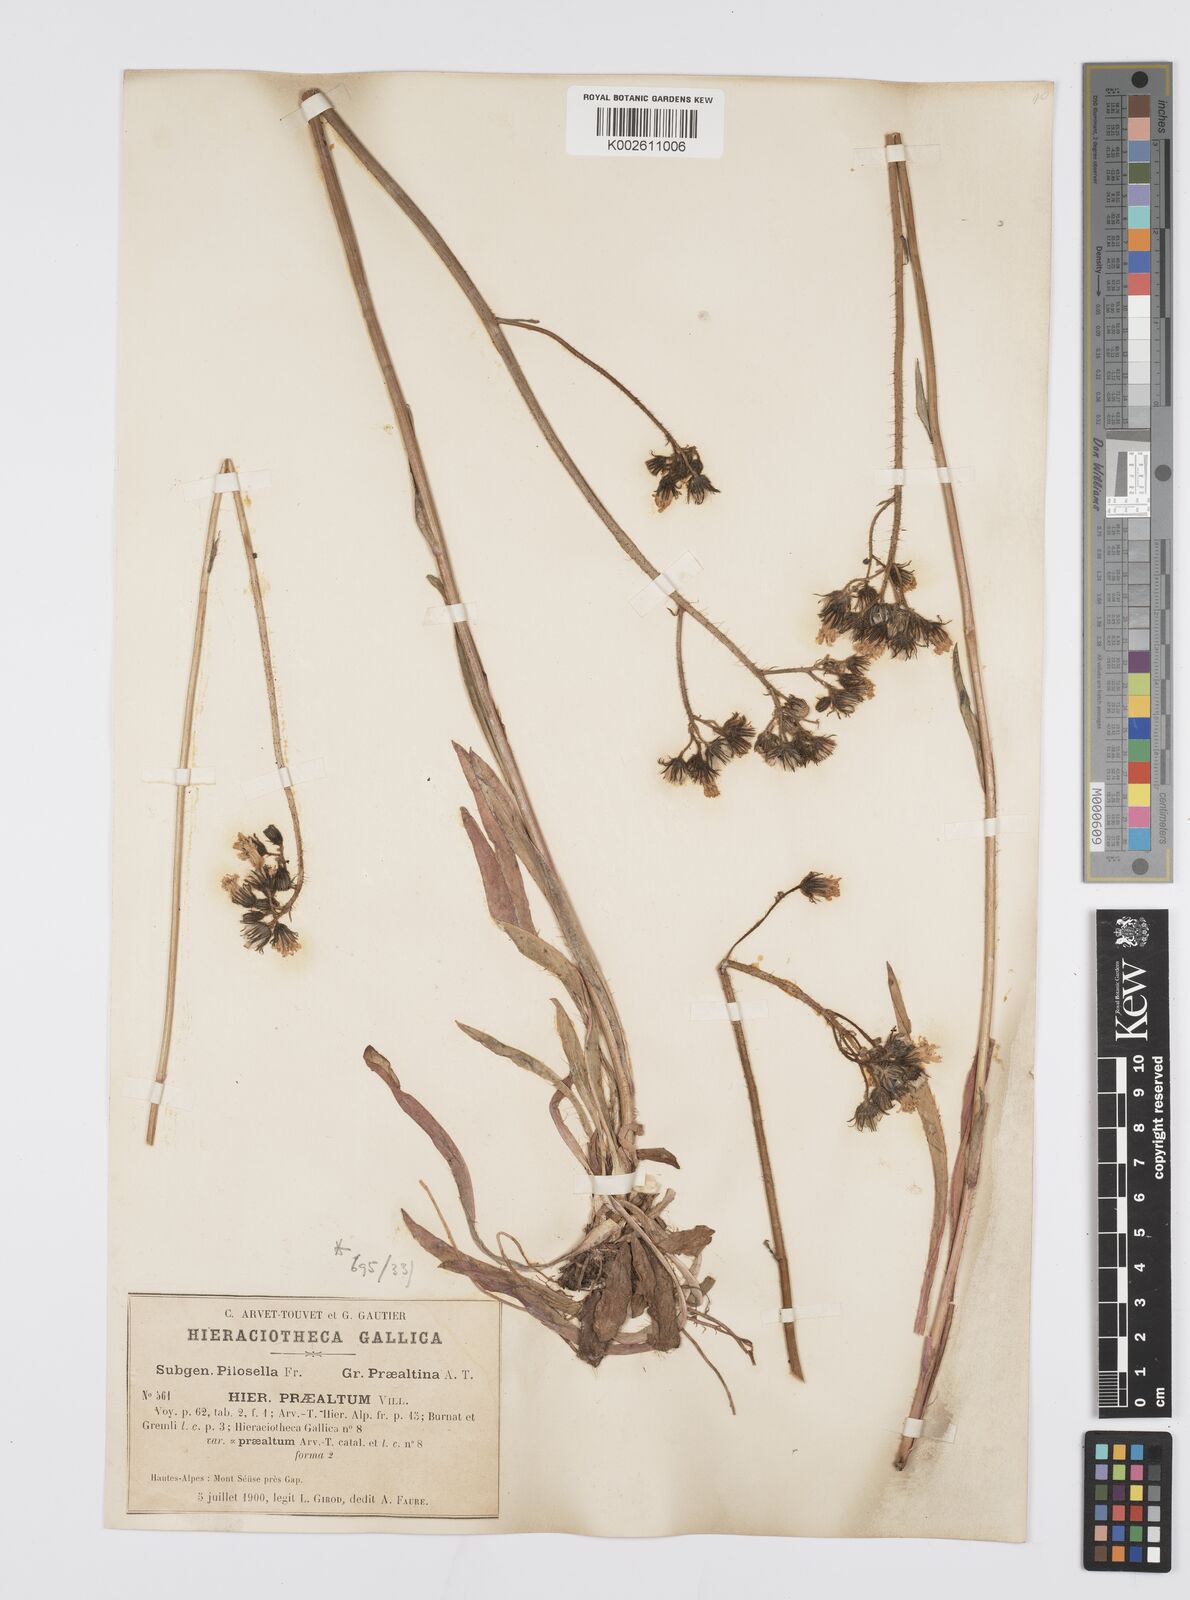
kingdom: Plantae
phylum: Tracheophyta
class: Magnoliopsida
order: Asterales
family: Asteraceae
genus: Pilosella
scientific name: Pilosella piloselloides
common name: Glaucous king-devil
